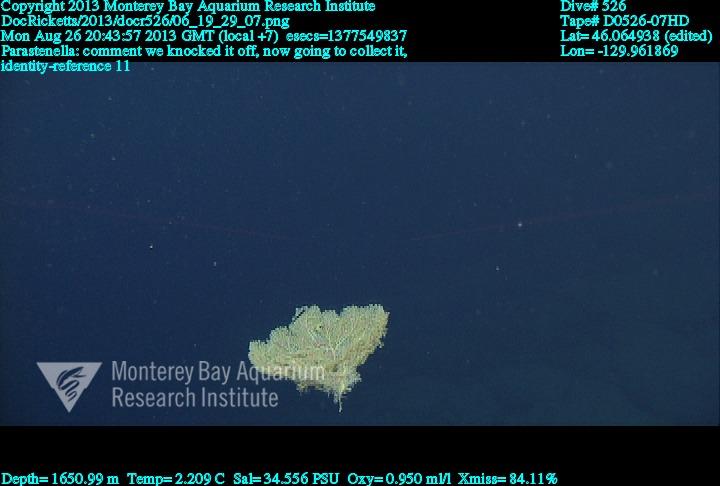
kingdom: Animalia
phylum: Cnidaria
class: Anthozoa
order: Scleralcyonacea
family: Primnoidae
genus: Parastenella
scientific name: Parastenella
